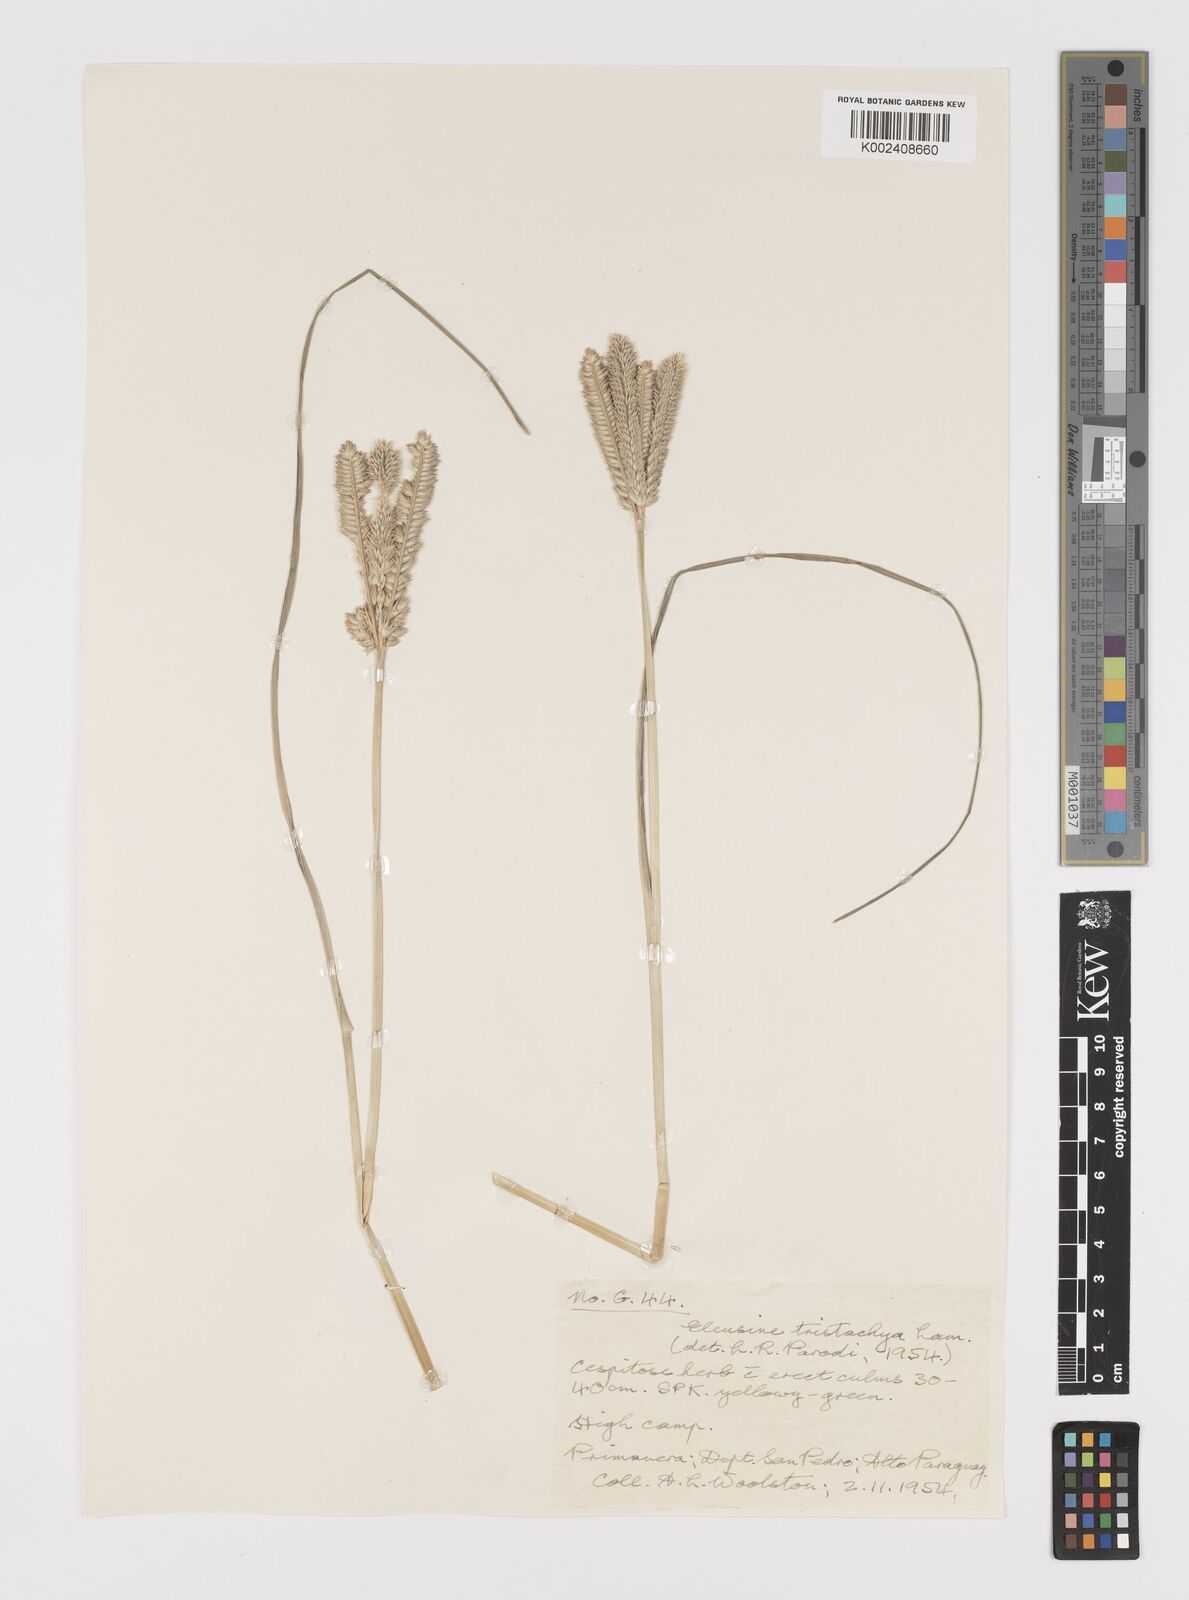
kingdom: Plantae
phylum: Tracheophyta
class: Liliopsida
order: Poales
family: Poaceae
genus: Eleusine
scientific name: Eleusine tristachya
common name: American yard-grass
